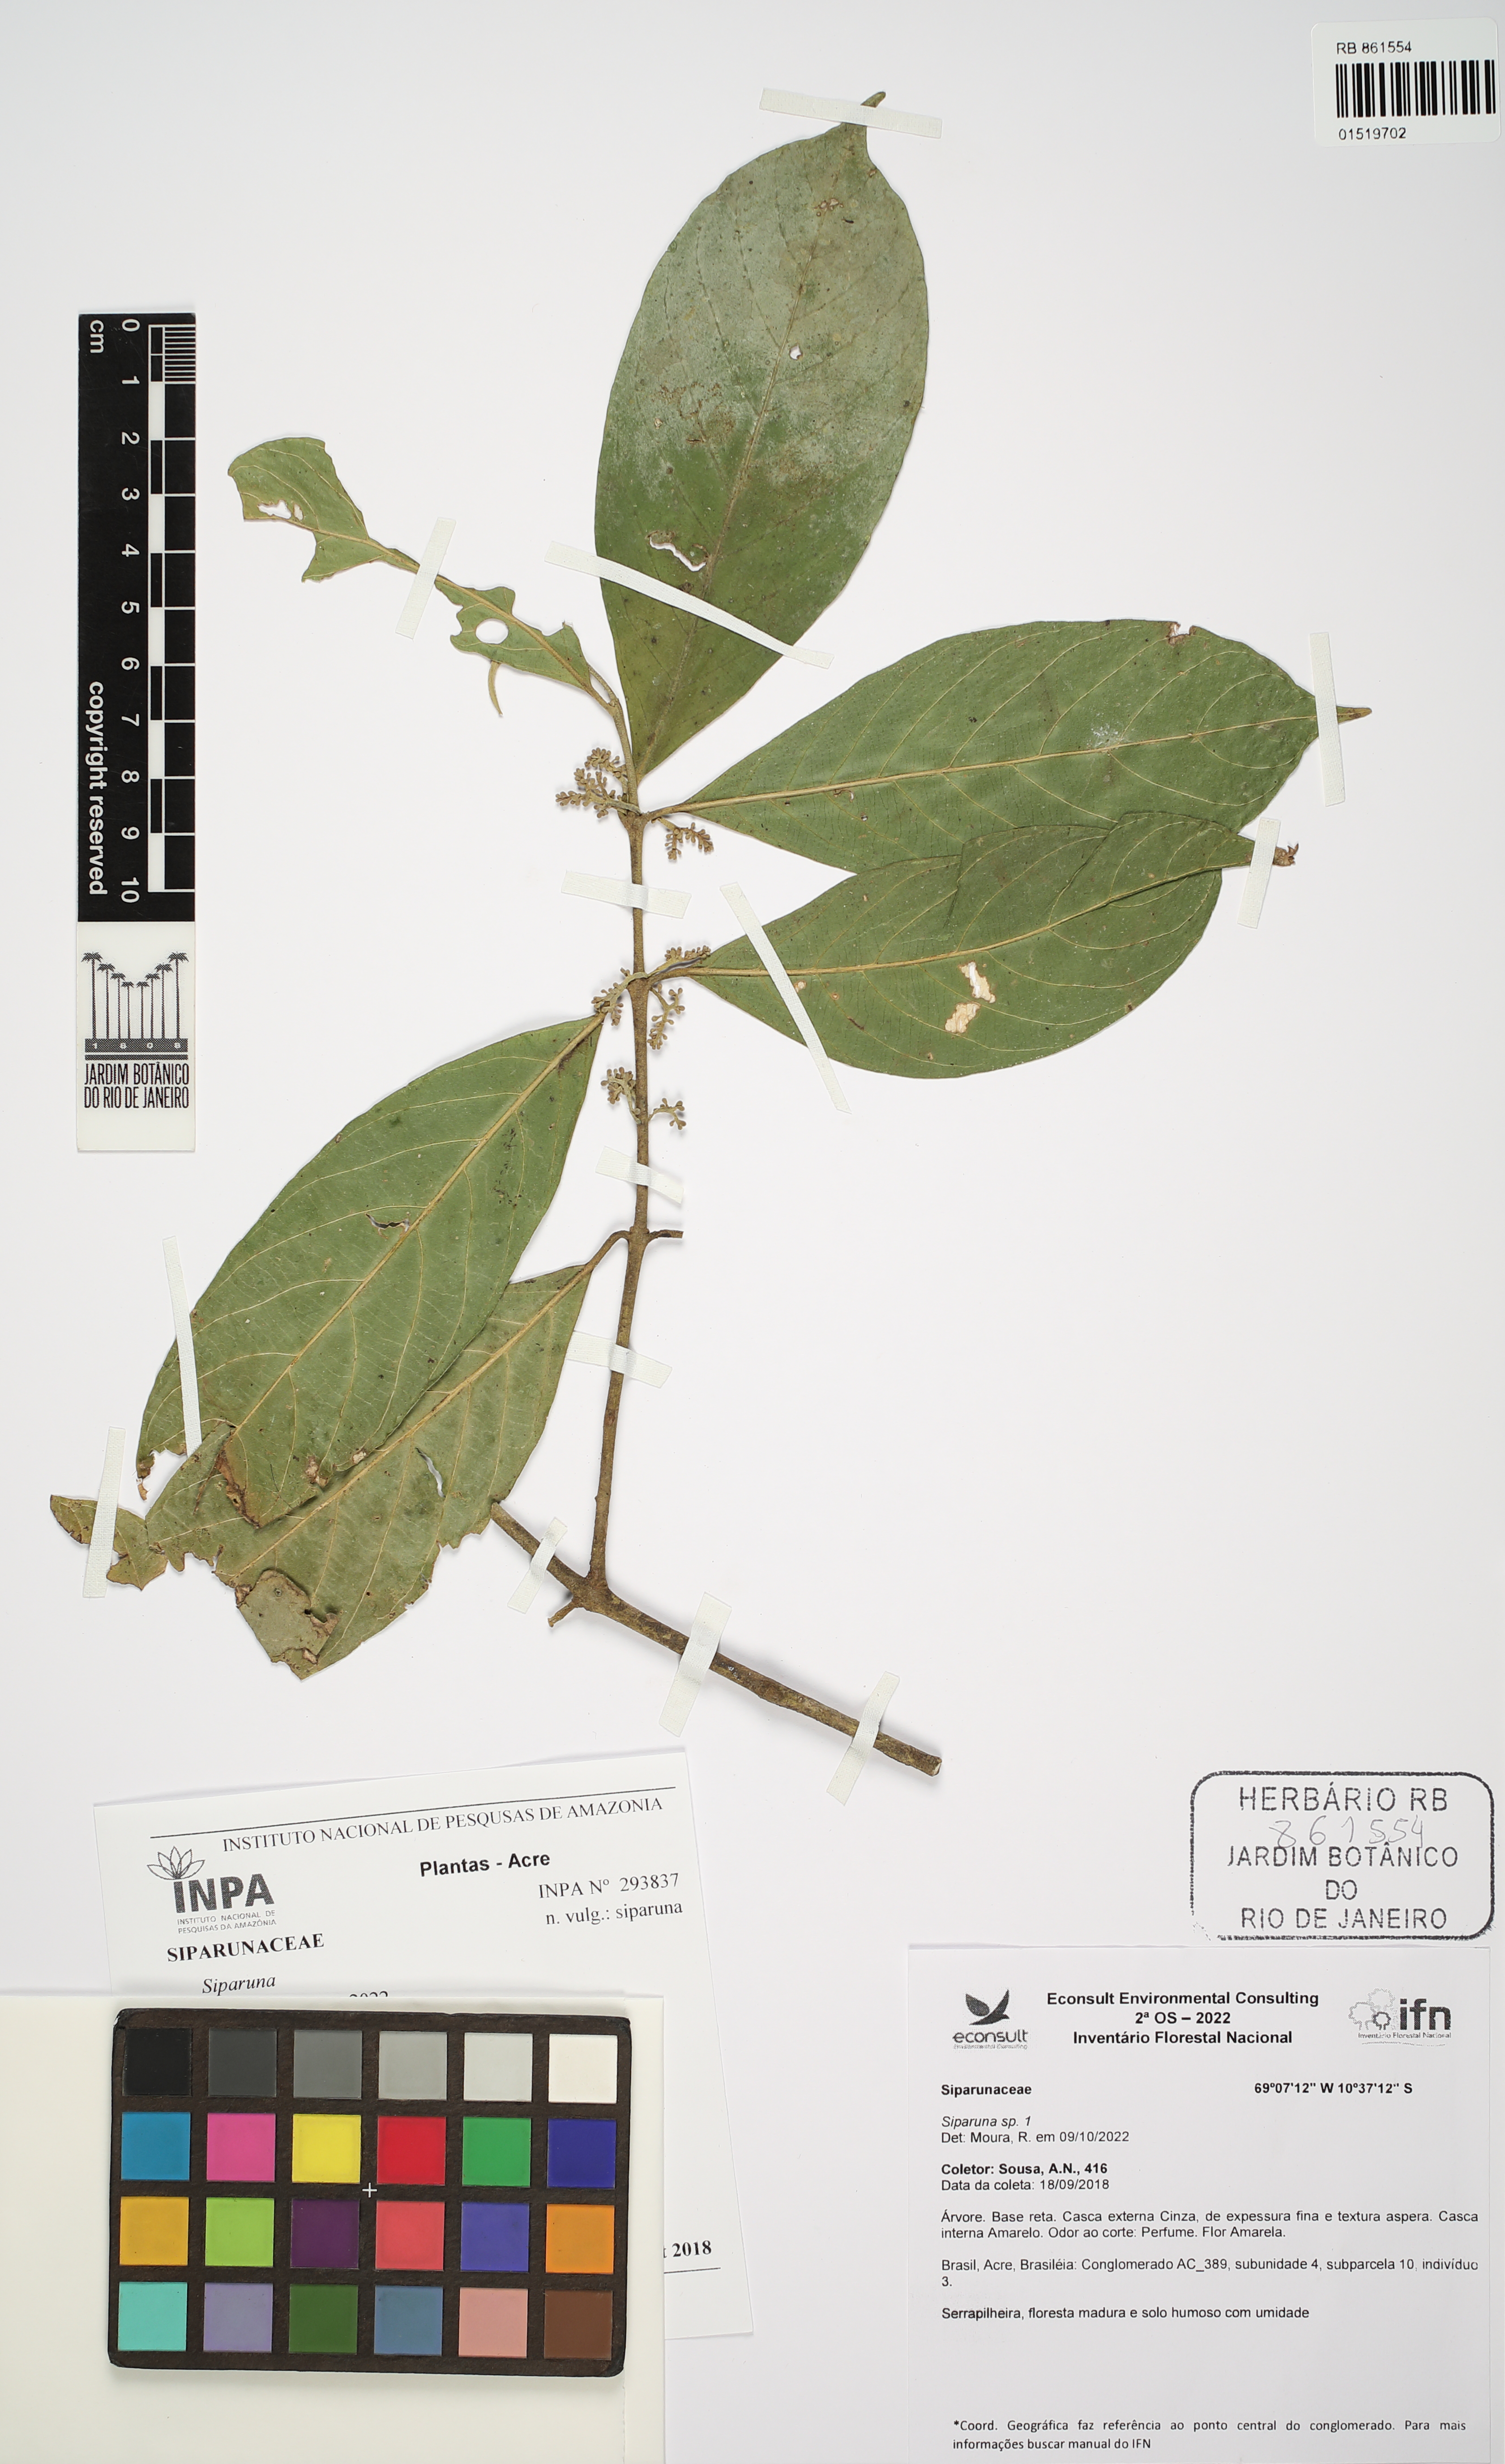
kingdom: Plantae
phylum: Tracheophyta
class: Magnoliopsida
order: Laurales
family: Siparunaceae
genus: Siparuna
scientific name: Siparuna
